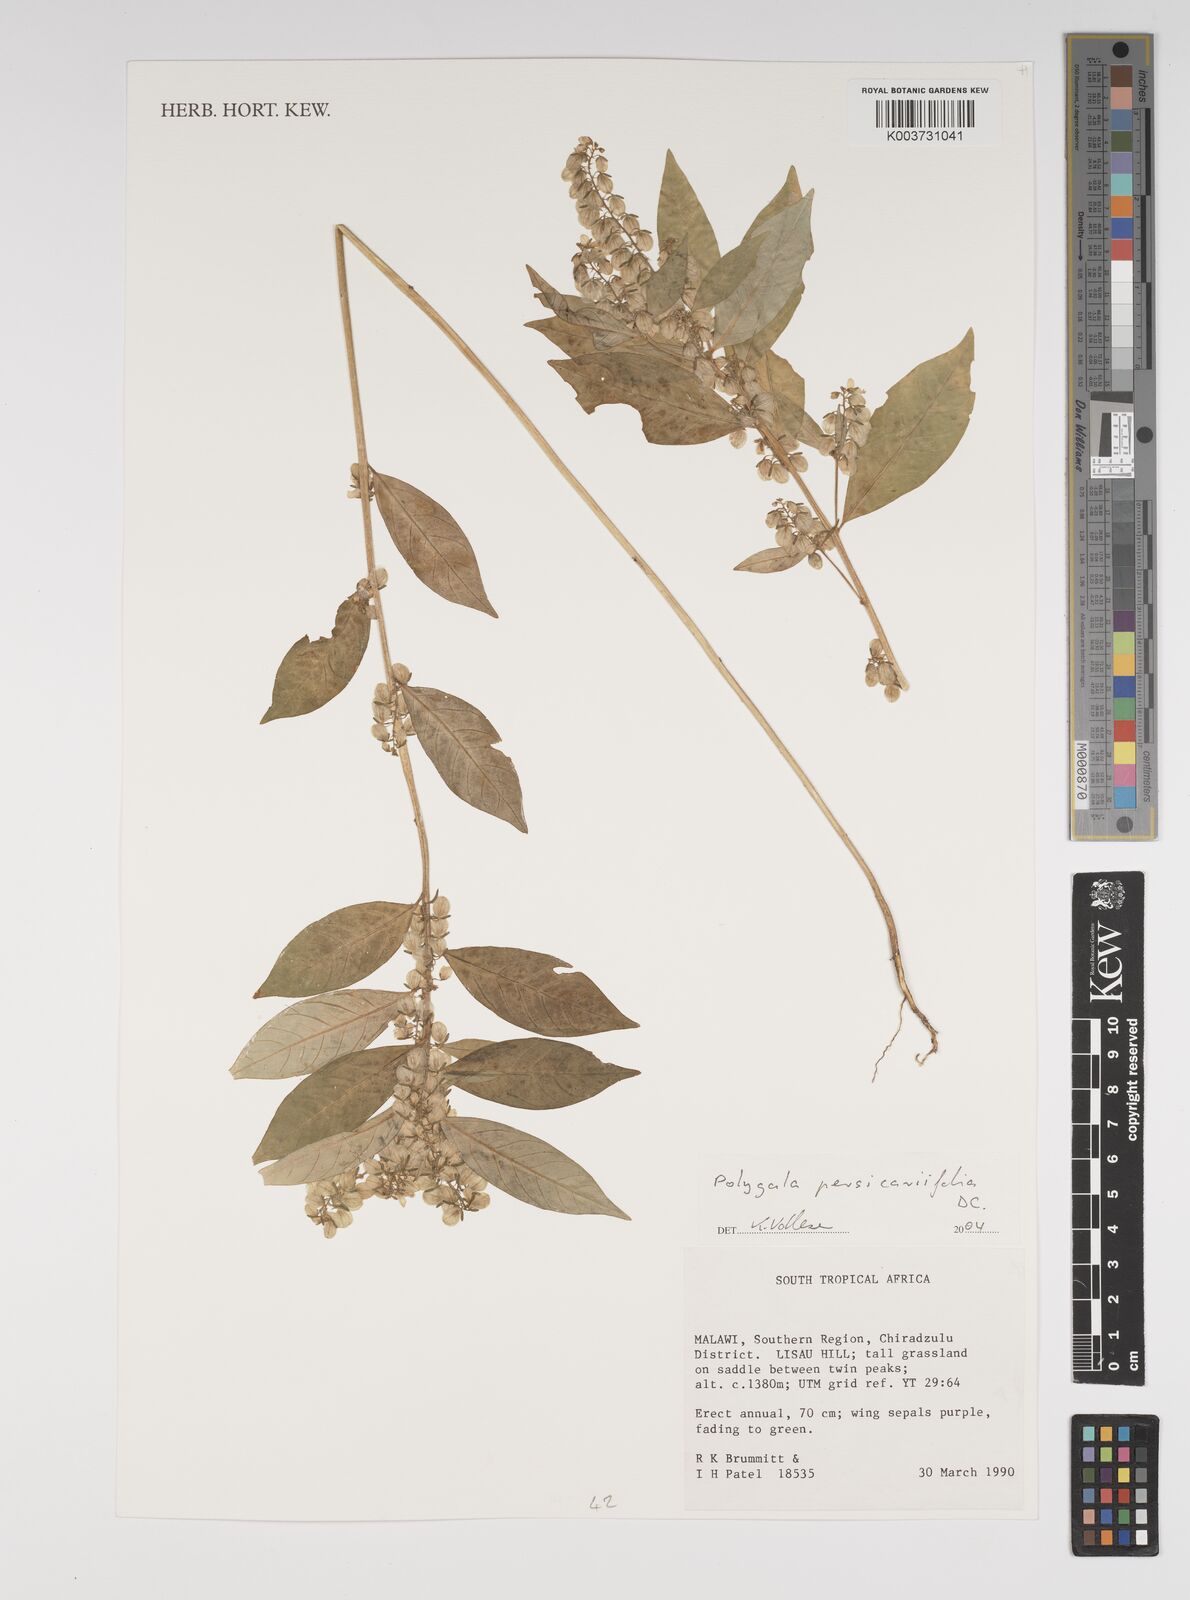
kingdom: Plantae
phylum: Tracheophyta
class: Magnoliopsida
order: Fabales
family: Polygalaceae
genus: Polygala
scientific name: Polygala persicariifolia
